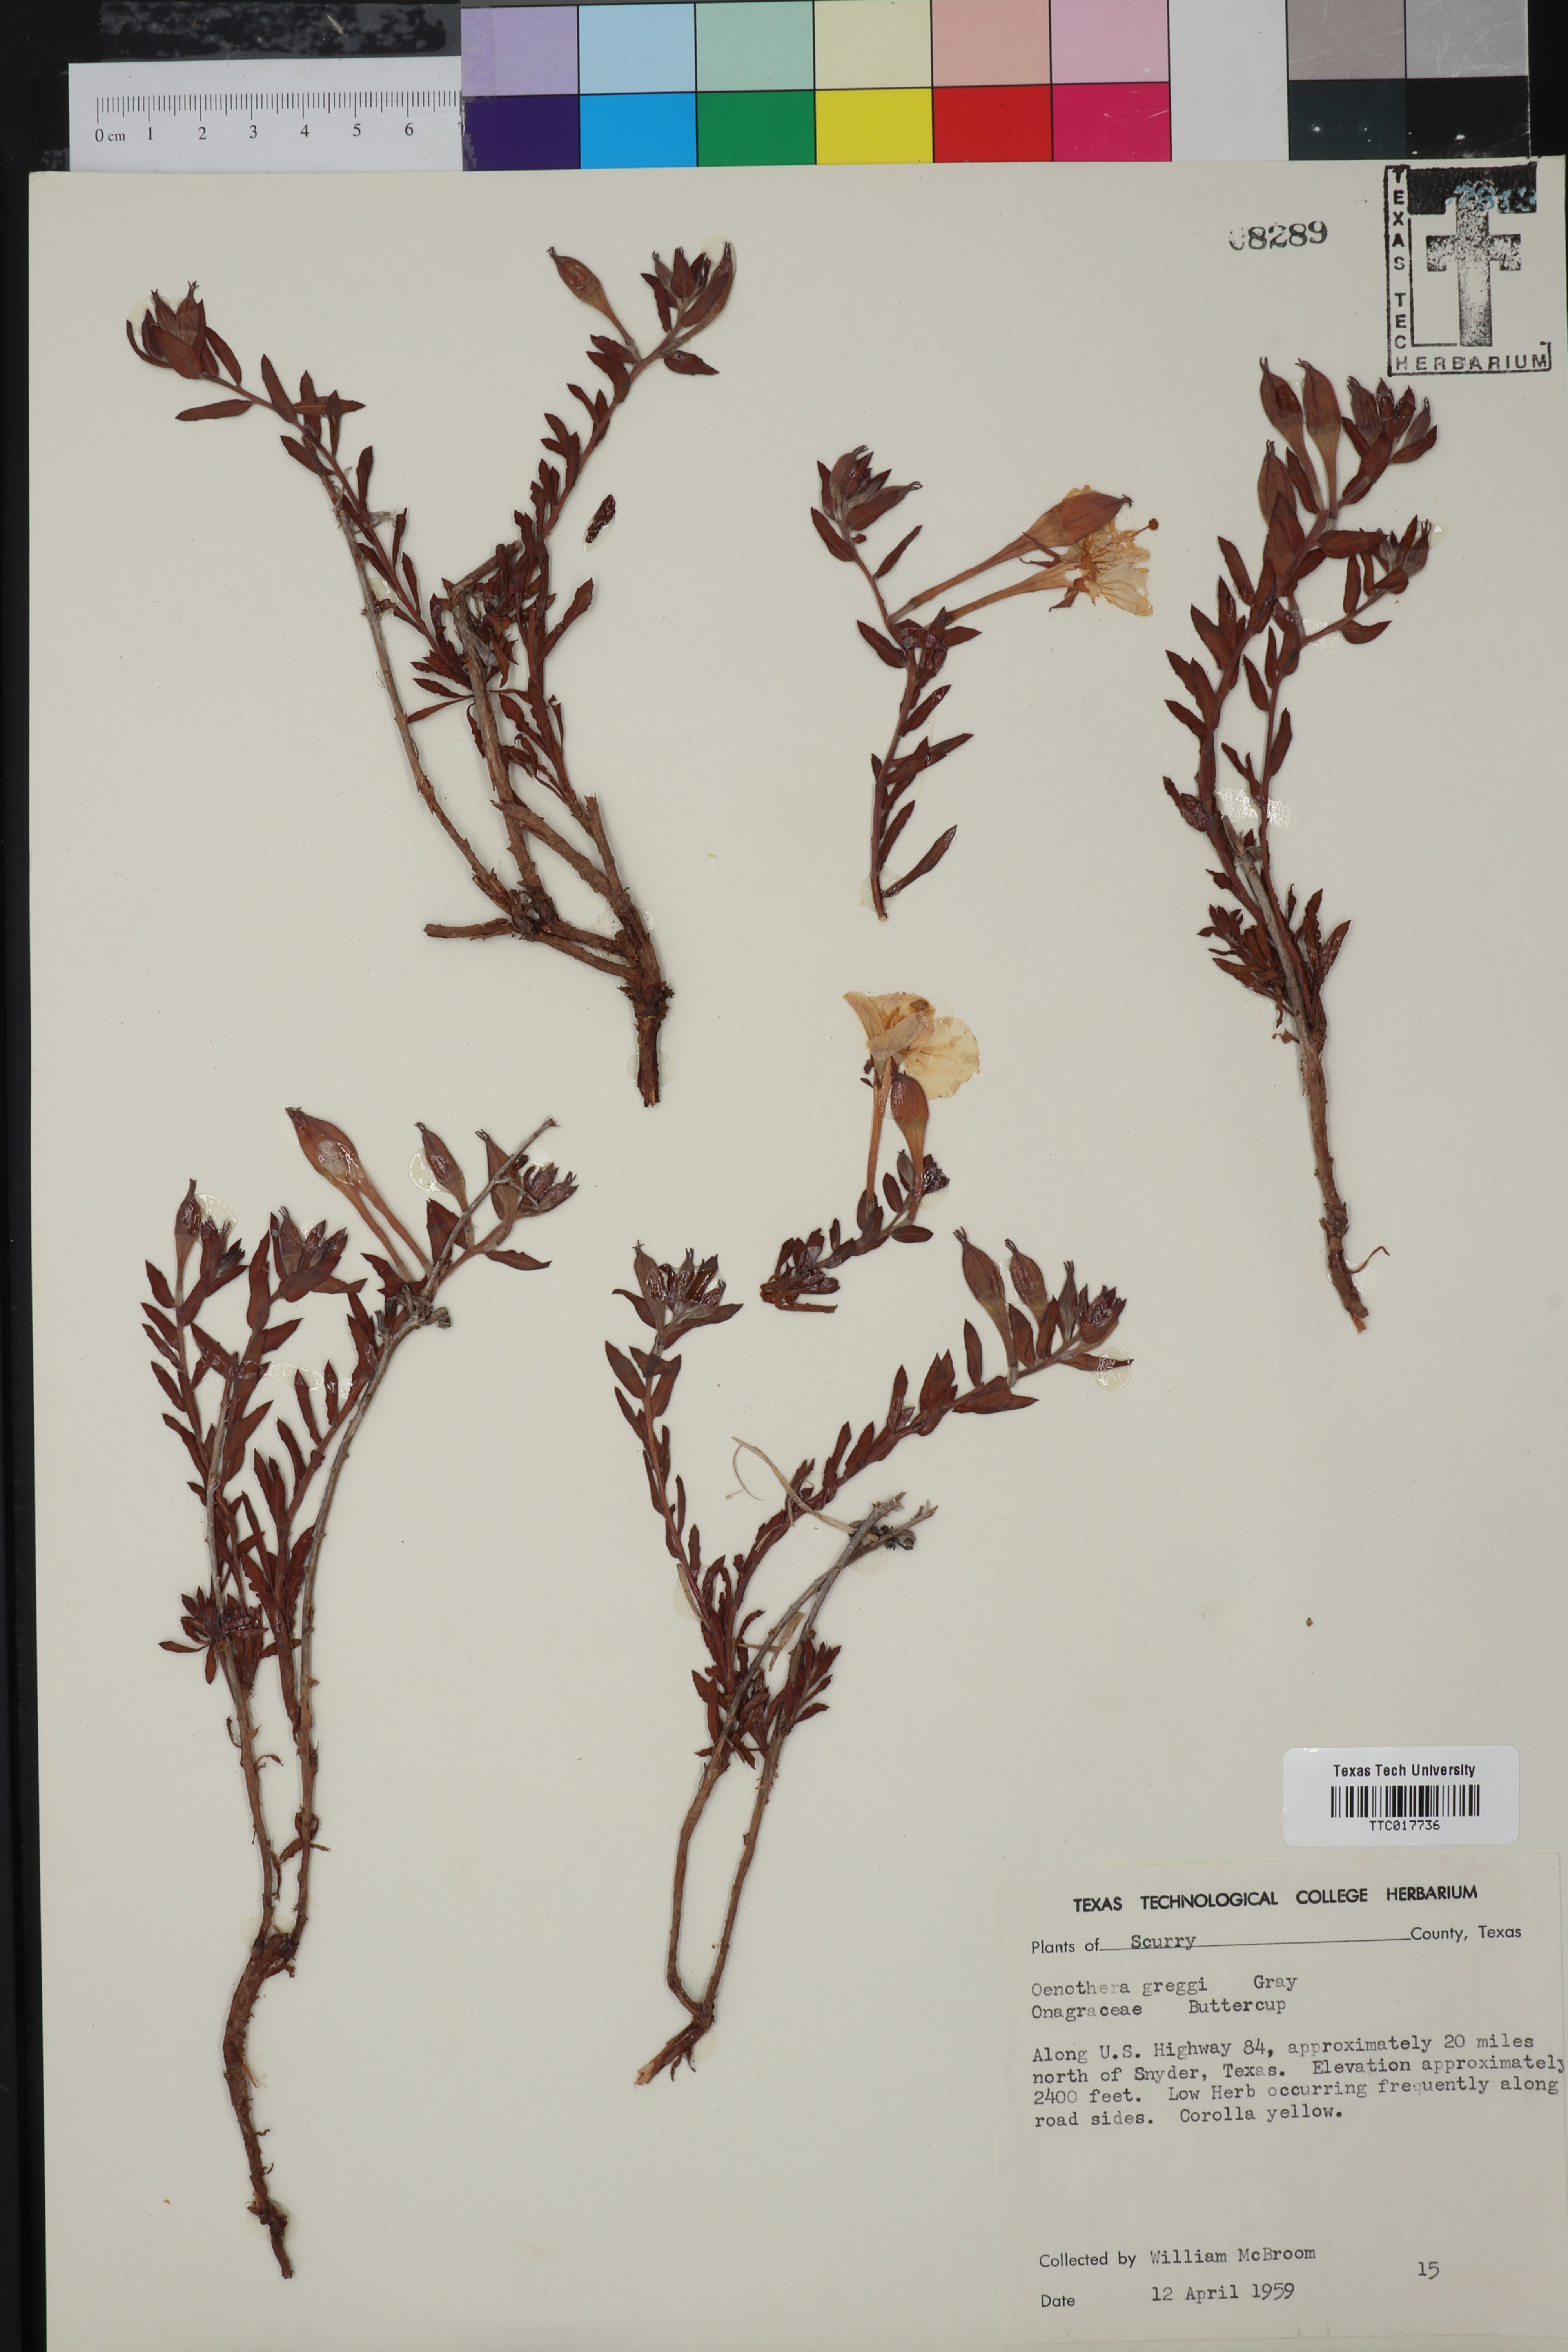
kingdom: Plantae
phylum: Tracheophyta
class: Magnoliopsida
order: Myrtales
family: Onagraceae
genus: Oenothera
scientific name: Oenothera hartwegii
